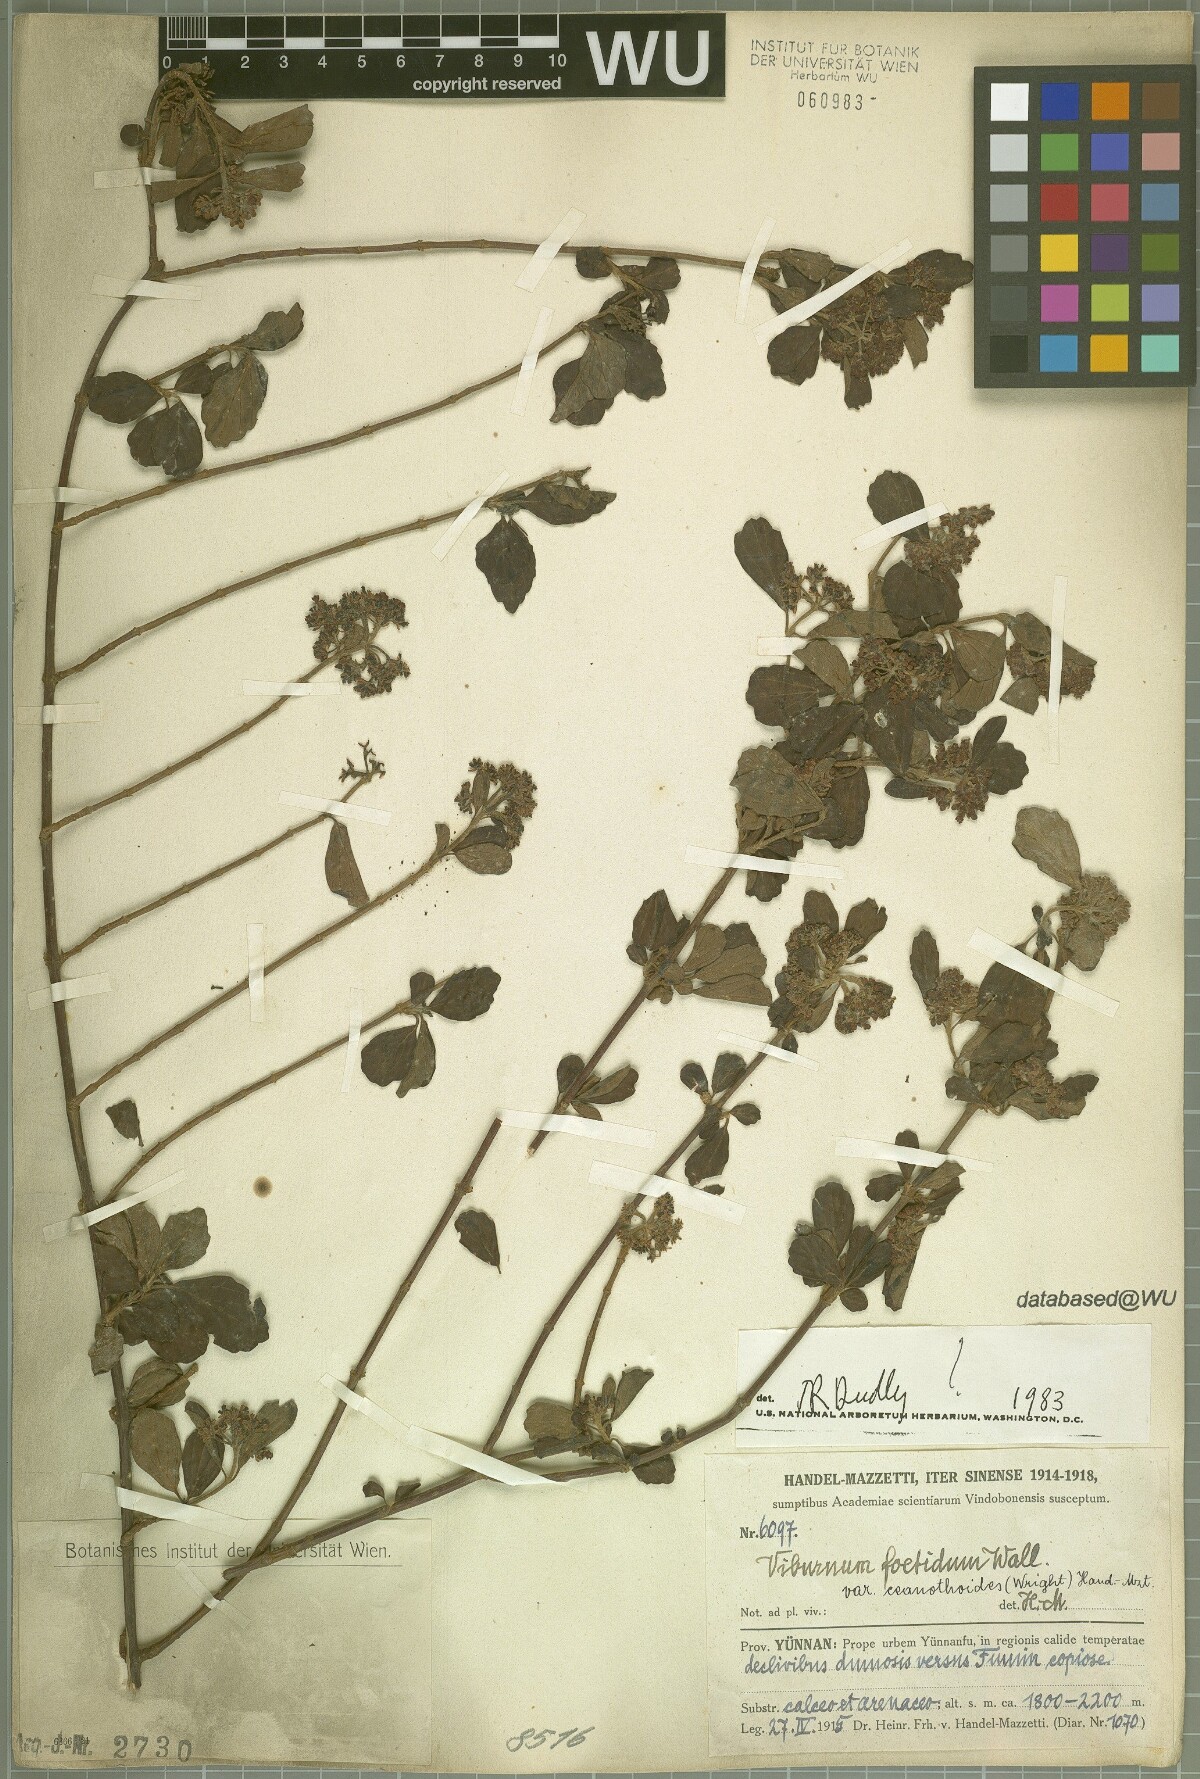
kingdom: Plantae
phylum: Tracheophyta
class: Magnoliopsida
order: Dipsacales
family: Viburnaceae
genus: Viburnum
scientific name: Viburnum foetidum
